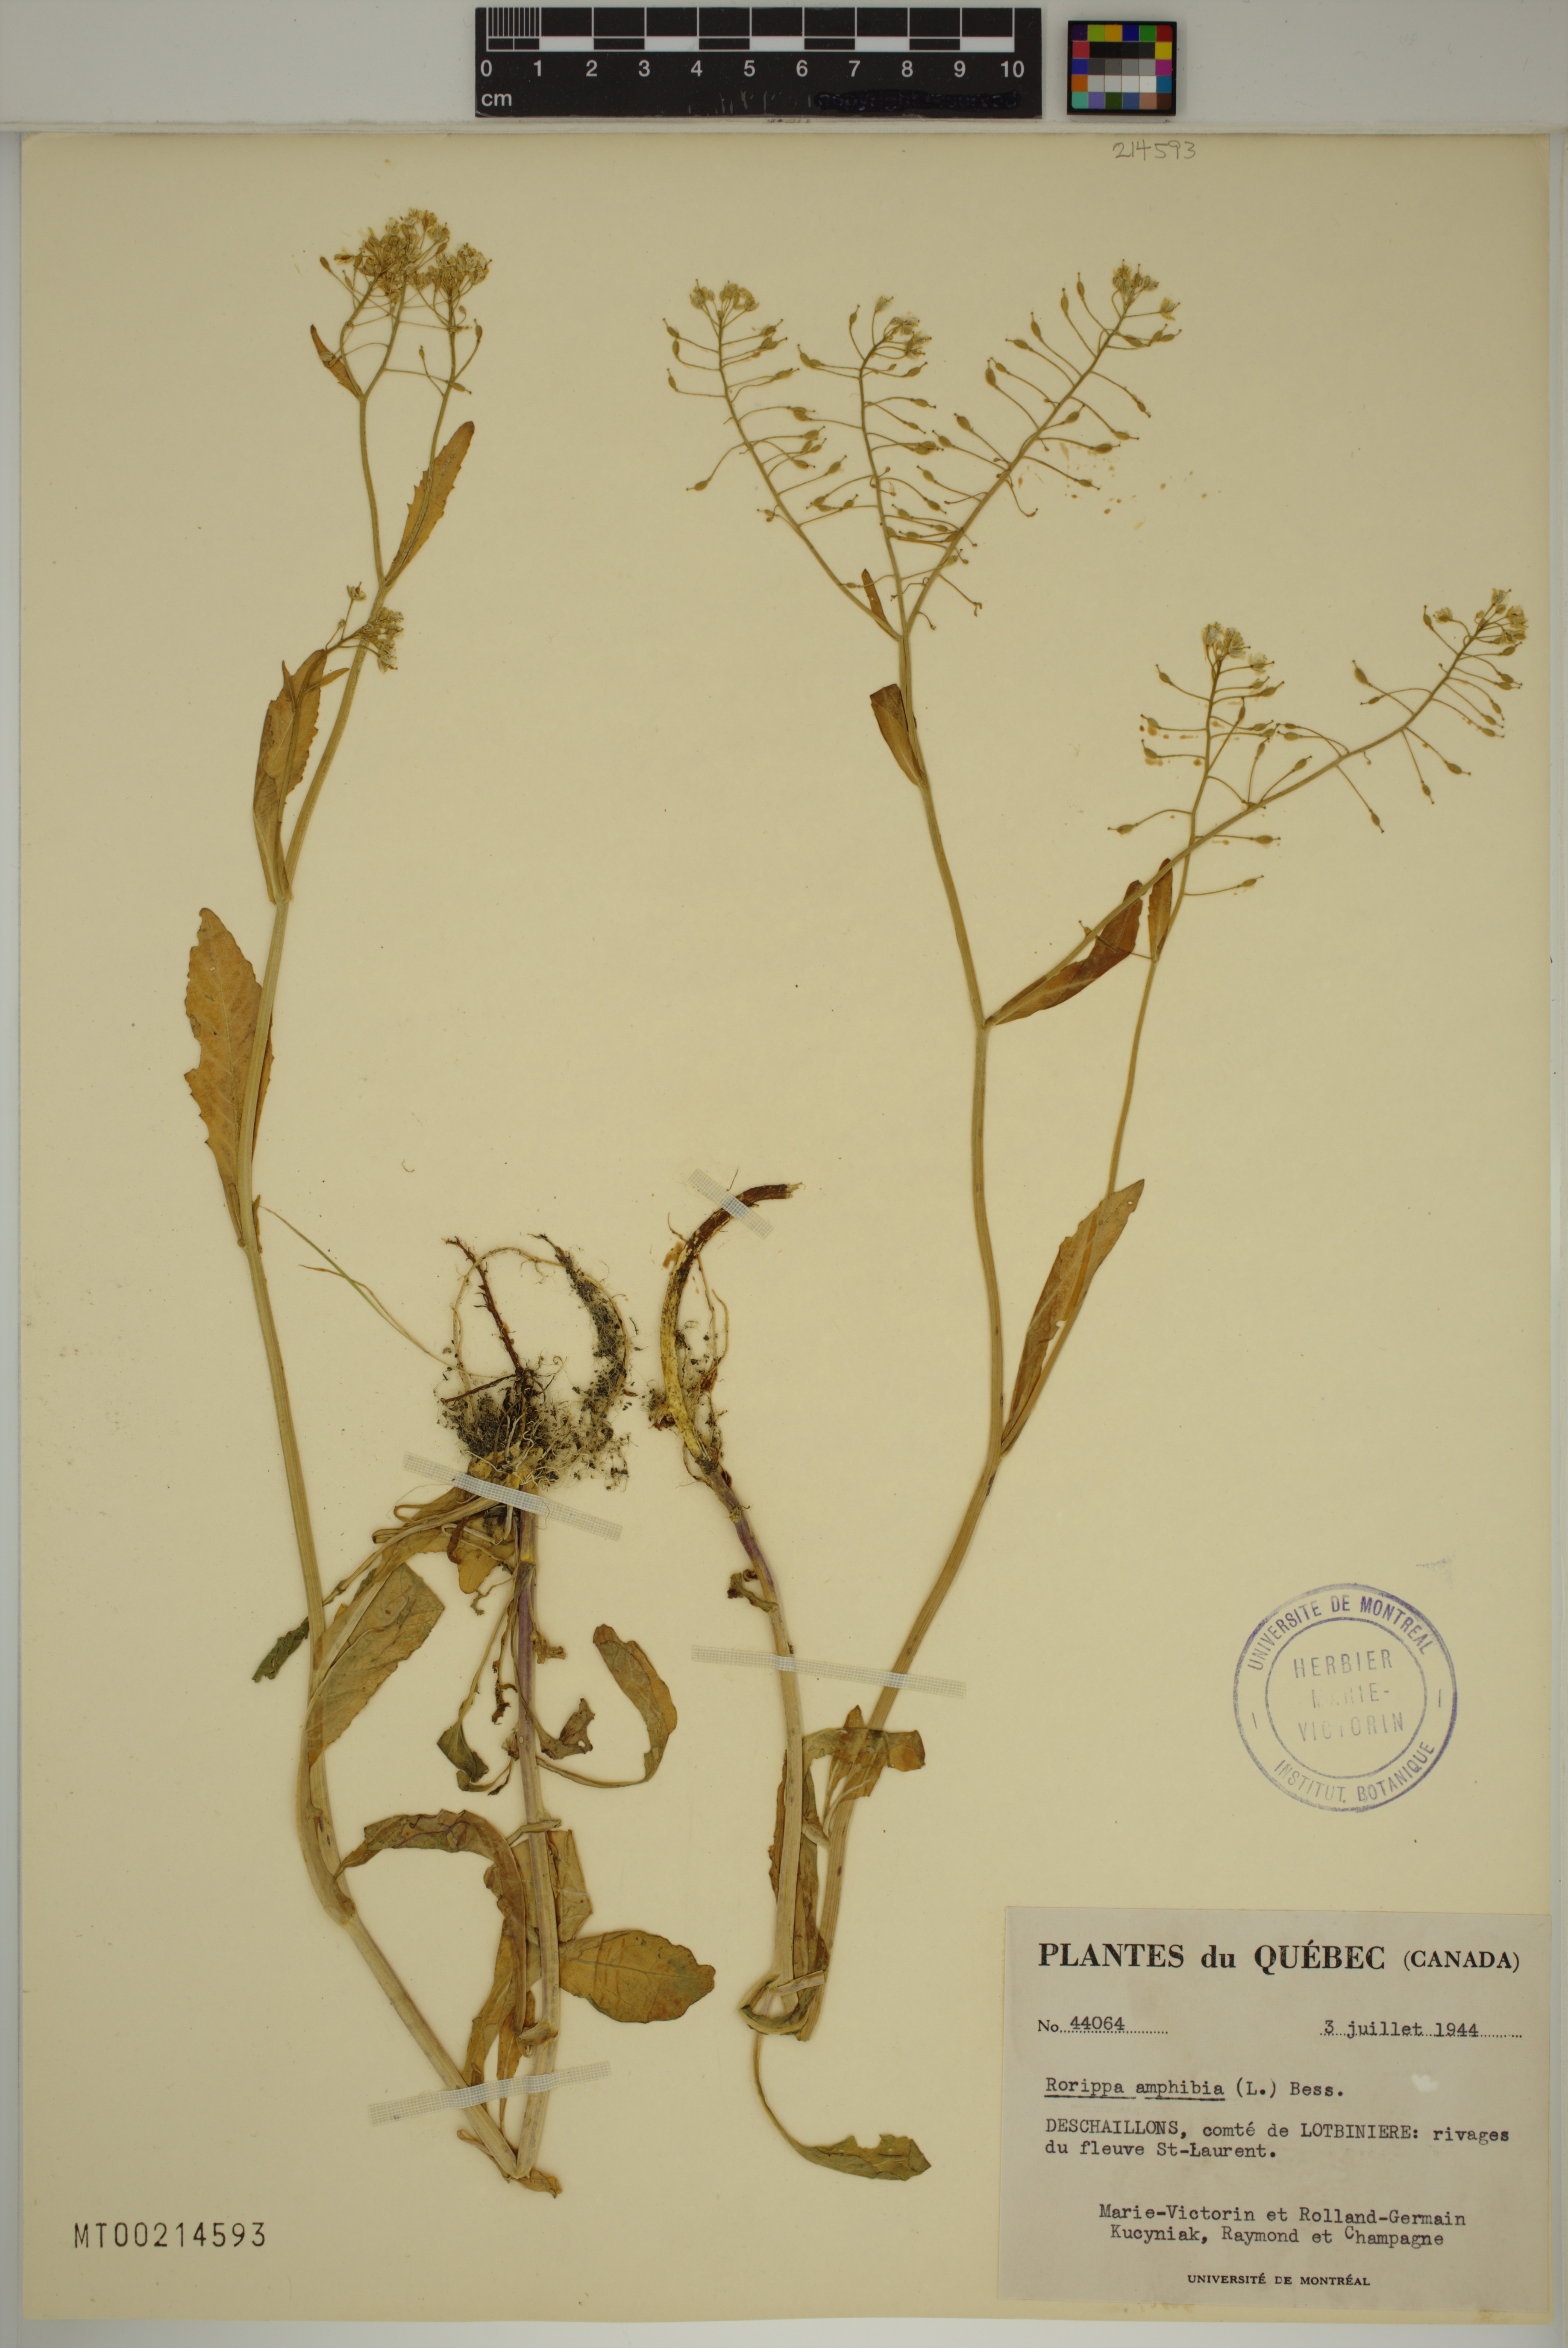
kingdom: Plantae
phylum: Tracheophyta
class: Magnoliopsida
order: Brassicales
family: Brassicaceae
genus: Rorippa
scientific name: Rorippa amphibia
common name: Great yellow-cress
